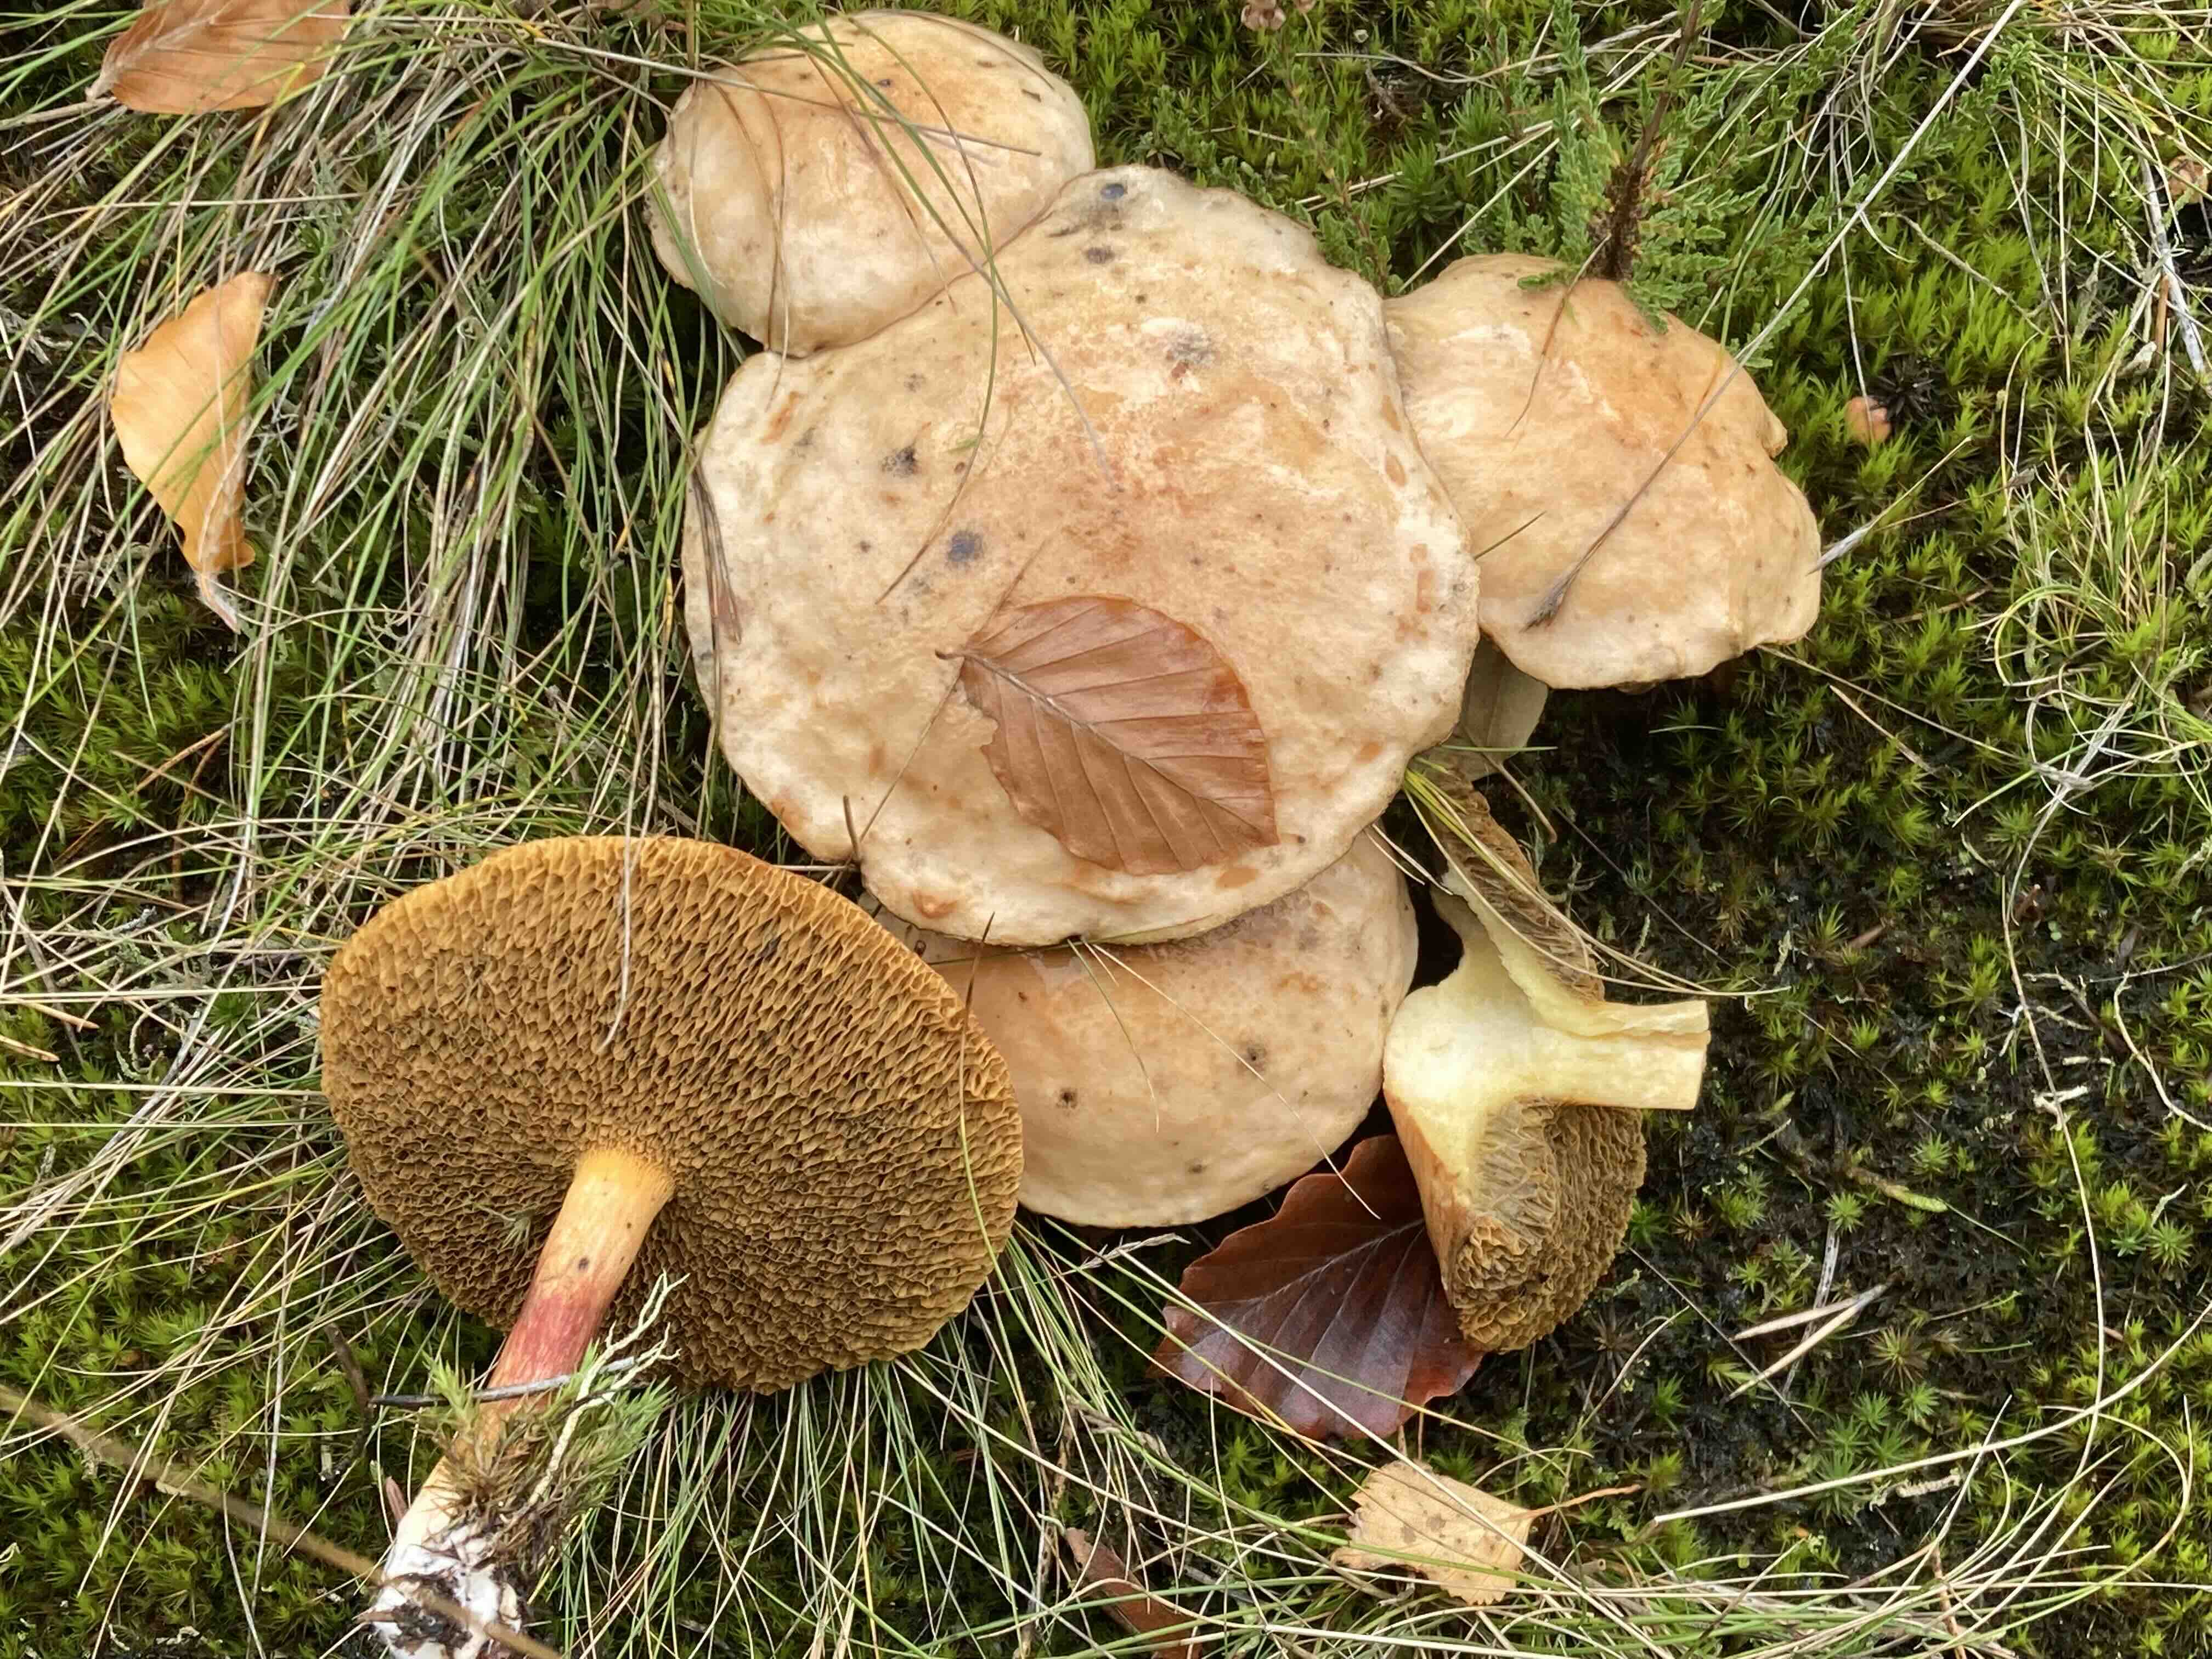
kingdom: Fungi
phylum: Basidiomycota
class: Agaricomycetes
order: Boletales
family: Suillaceae
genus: Suillus
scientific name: Suillus bovinus
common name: grovporet slimrørhat
